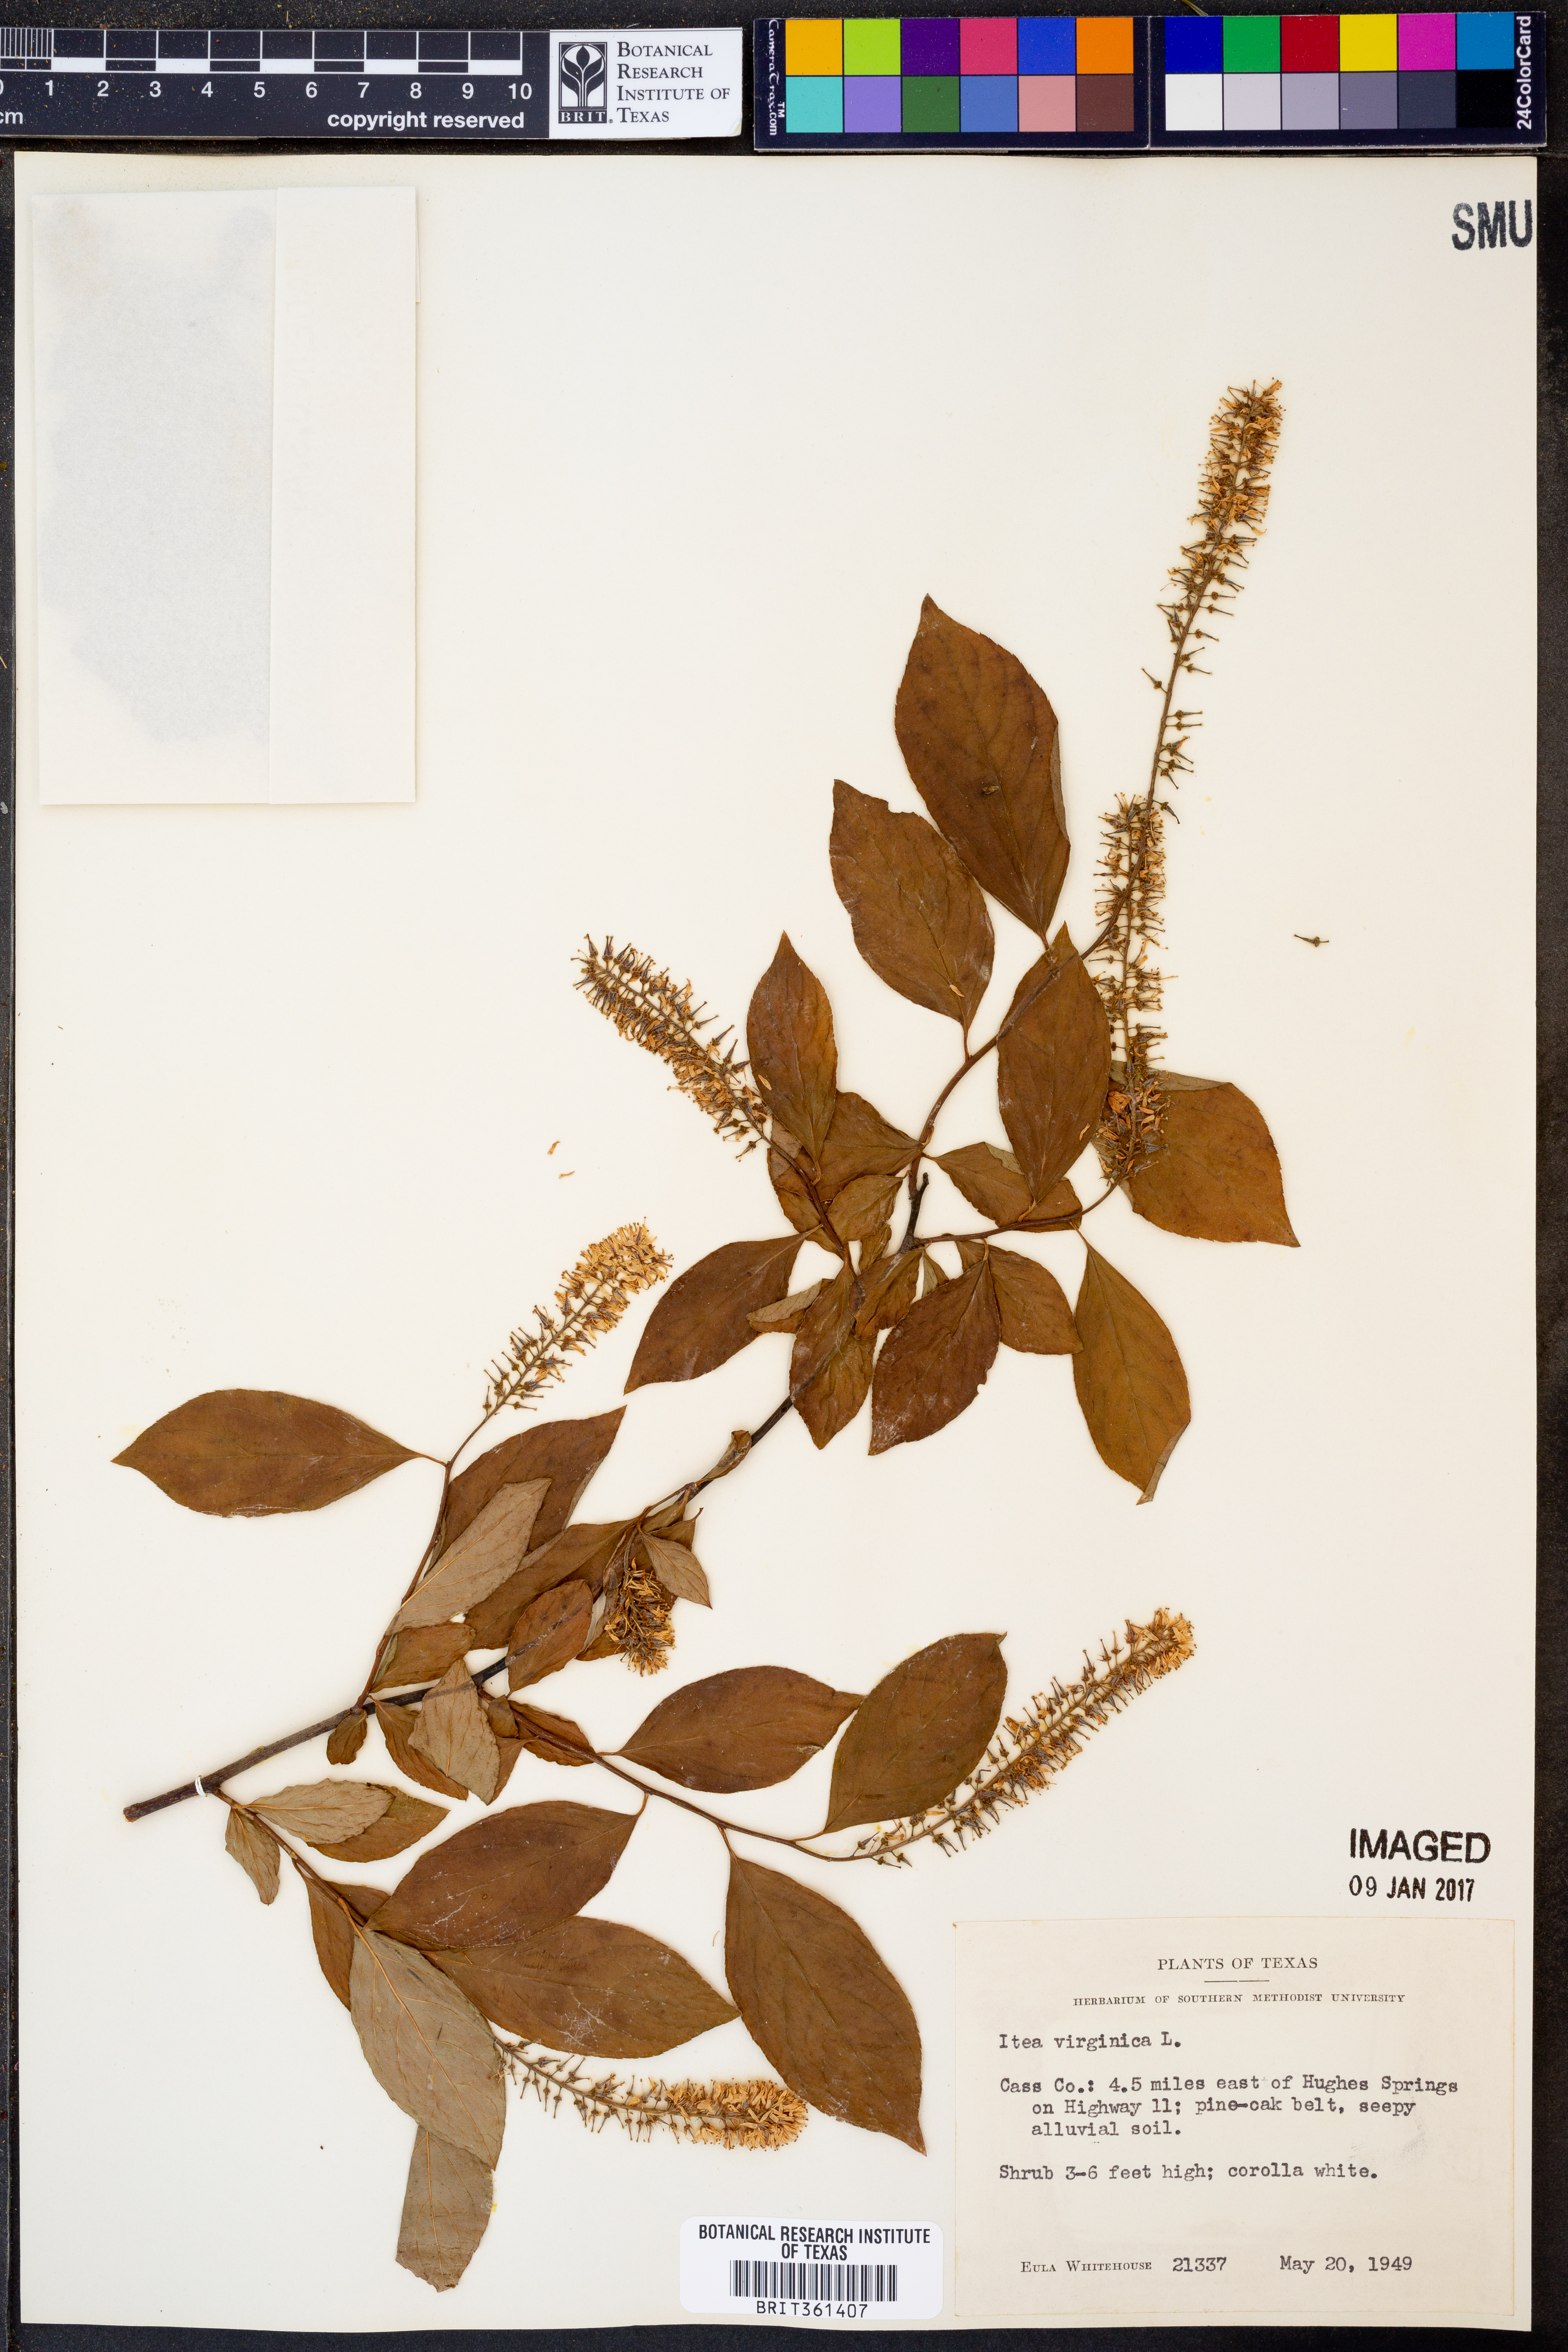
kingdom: Plantae
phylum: Tracheophyta
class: Magnoliopsida
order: Saxifragales
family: Iteaceae
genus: Itea
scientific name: Itea virginica
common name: Sweetspire
